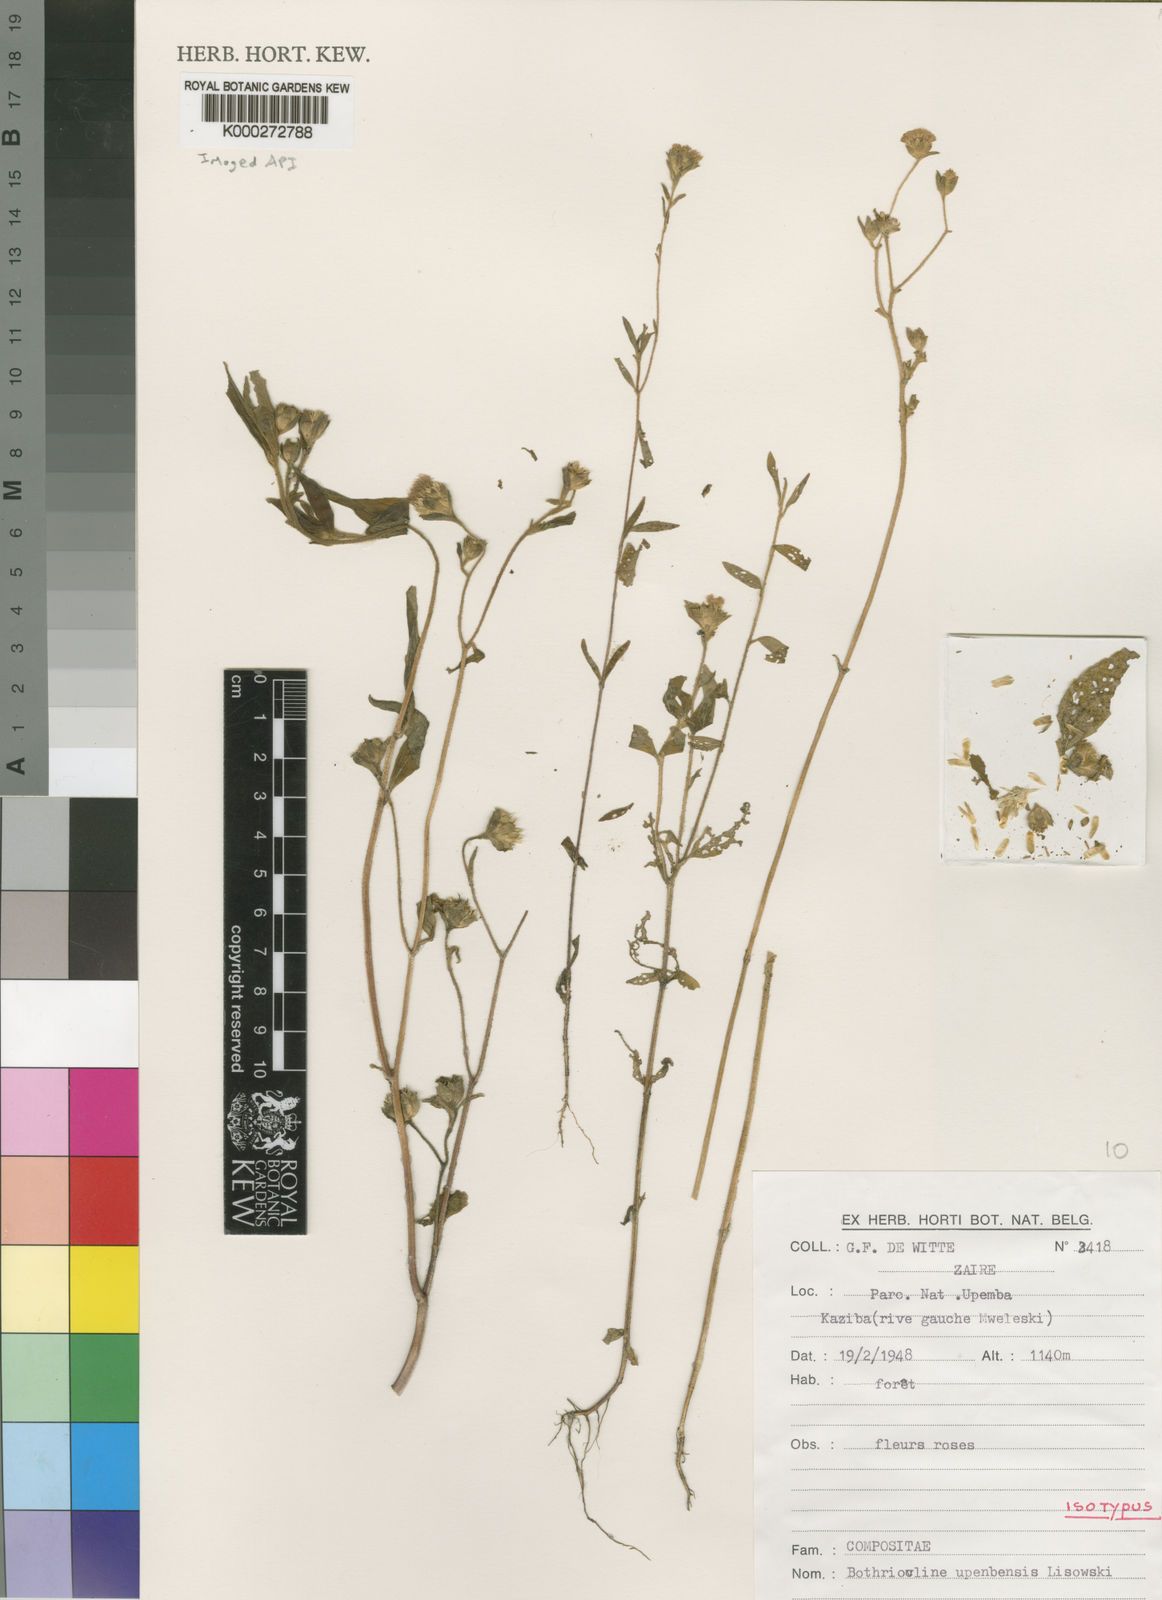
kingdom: Plantae
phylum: Tracheophyta
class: Magnoliopsida
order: Asterales
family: Asteraceae
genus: Bothriocline
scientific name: Bothriocline upembensis
